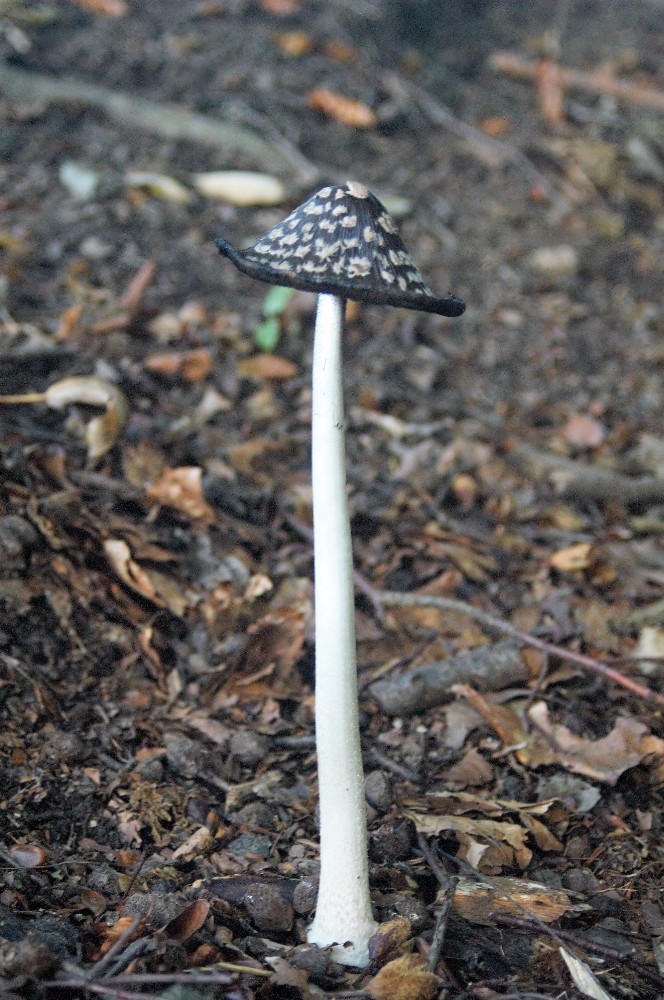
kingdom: Fungi
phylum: Basidiomycota
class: Agaricomycetes
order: Agaricales
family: Psathyrellaceae
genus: Coprinopsis
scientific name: Coprinopsis picacea
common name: skade-blækhat
